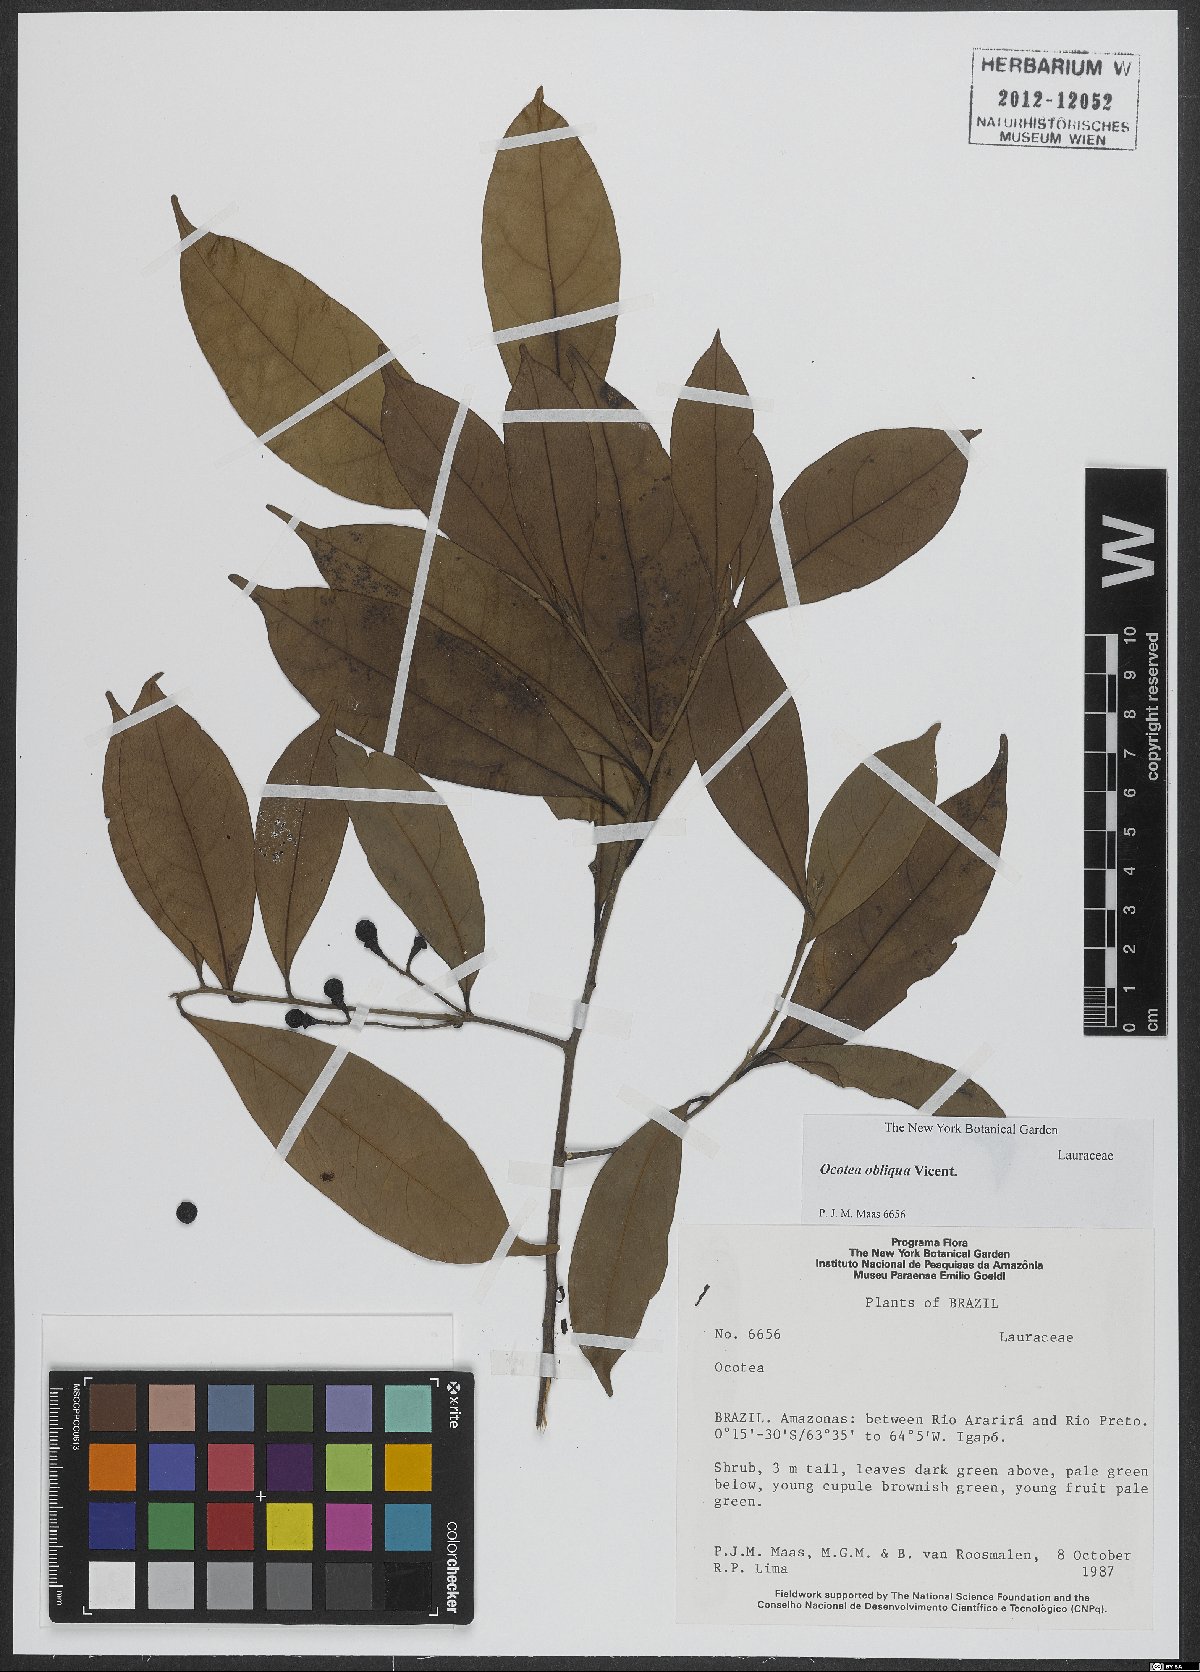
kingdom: Plantae
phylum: Tracheophyta
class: Magnoliopsida
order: Laurales
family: Lauraceae
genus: Ocotea
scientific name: Ocotea obliqua
